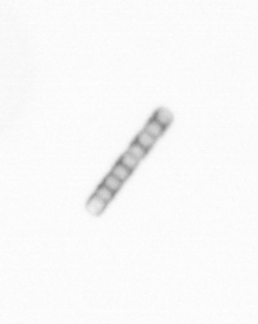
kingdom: Chromista
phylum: Ochrophyta
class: Bacillariophyceae
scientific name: Bacillariophyceae
